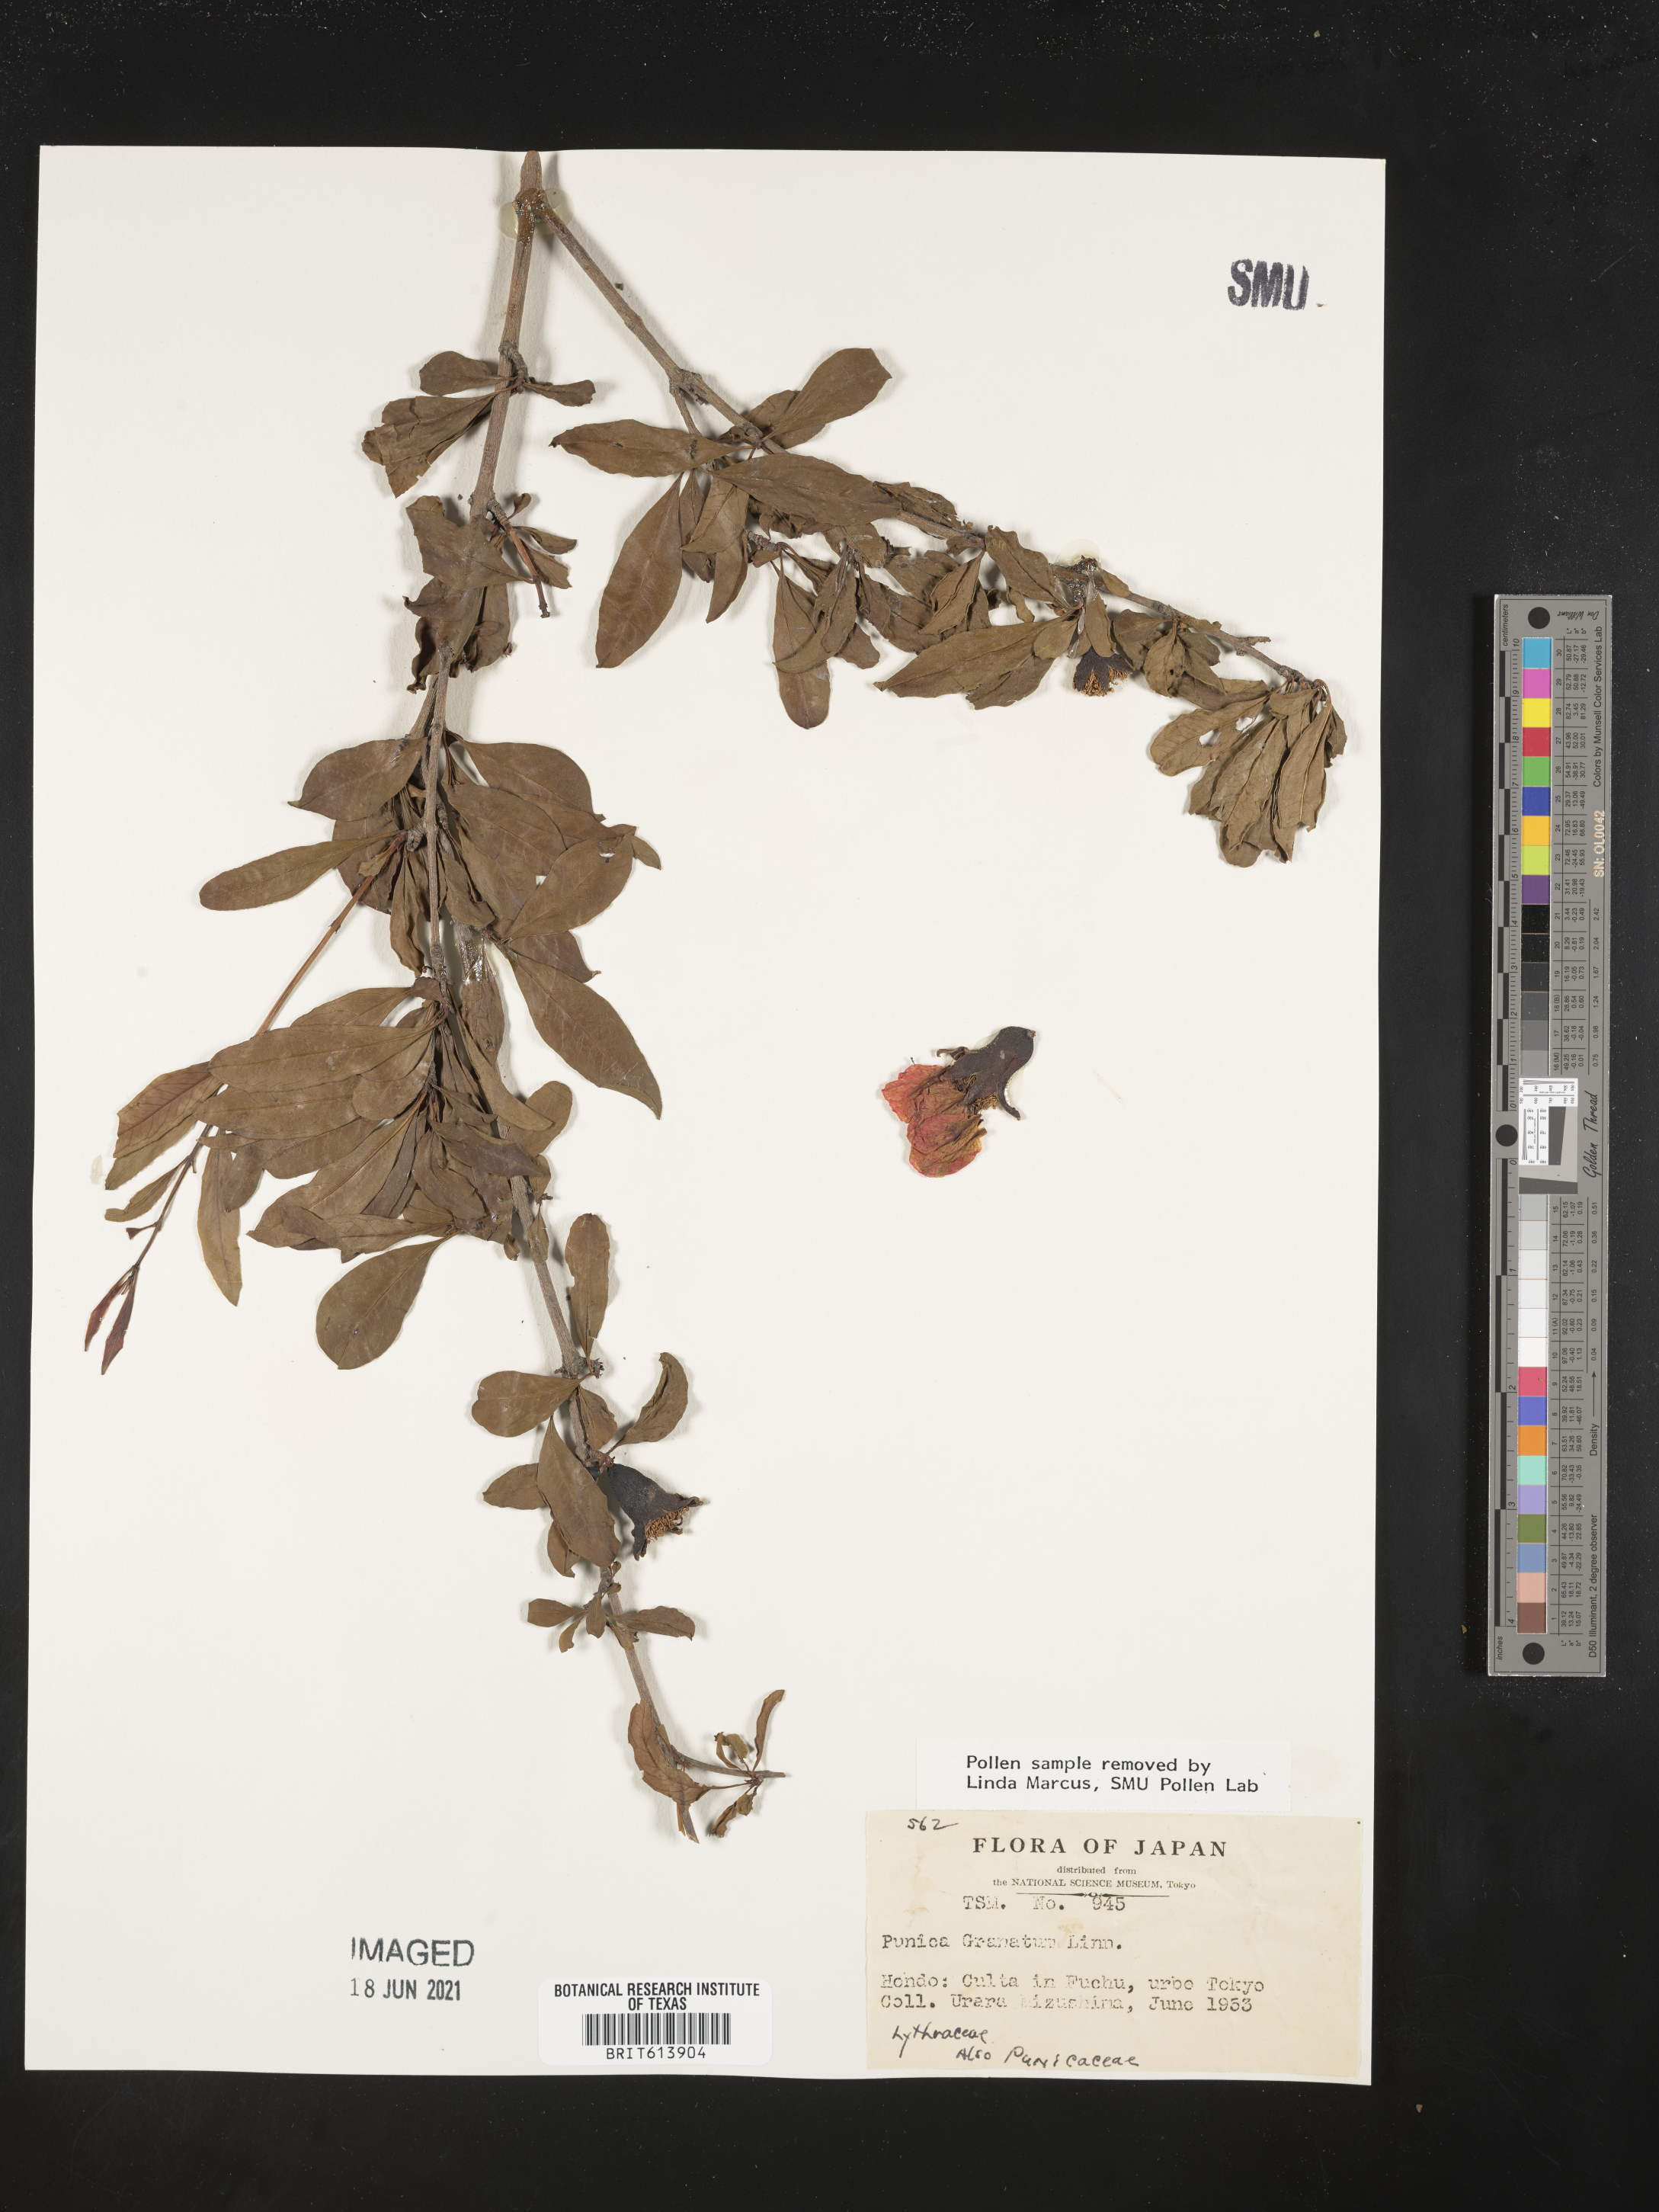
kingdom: Plantae
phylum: Tracheophyta
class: Magnoliopsida
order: Myrtales
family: Lythraceae
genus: Punica
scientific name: Punica granatum
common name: Pomegranate
